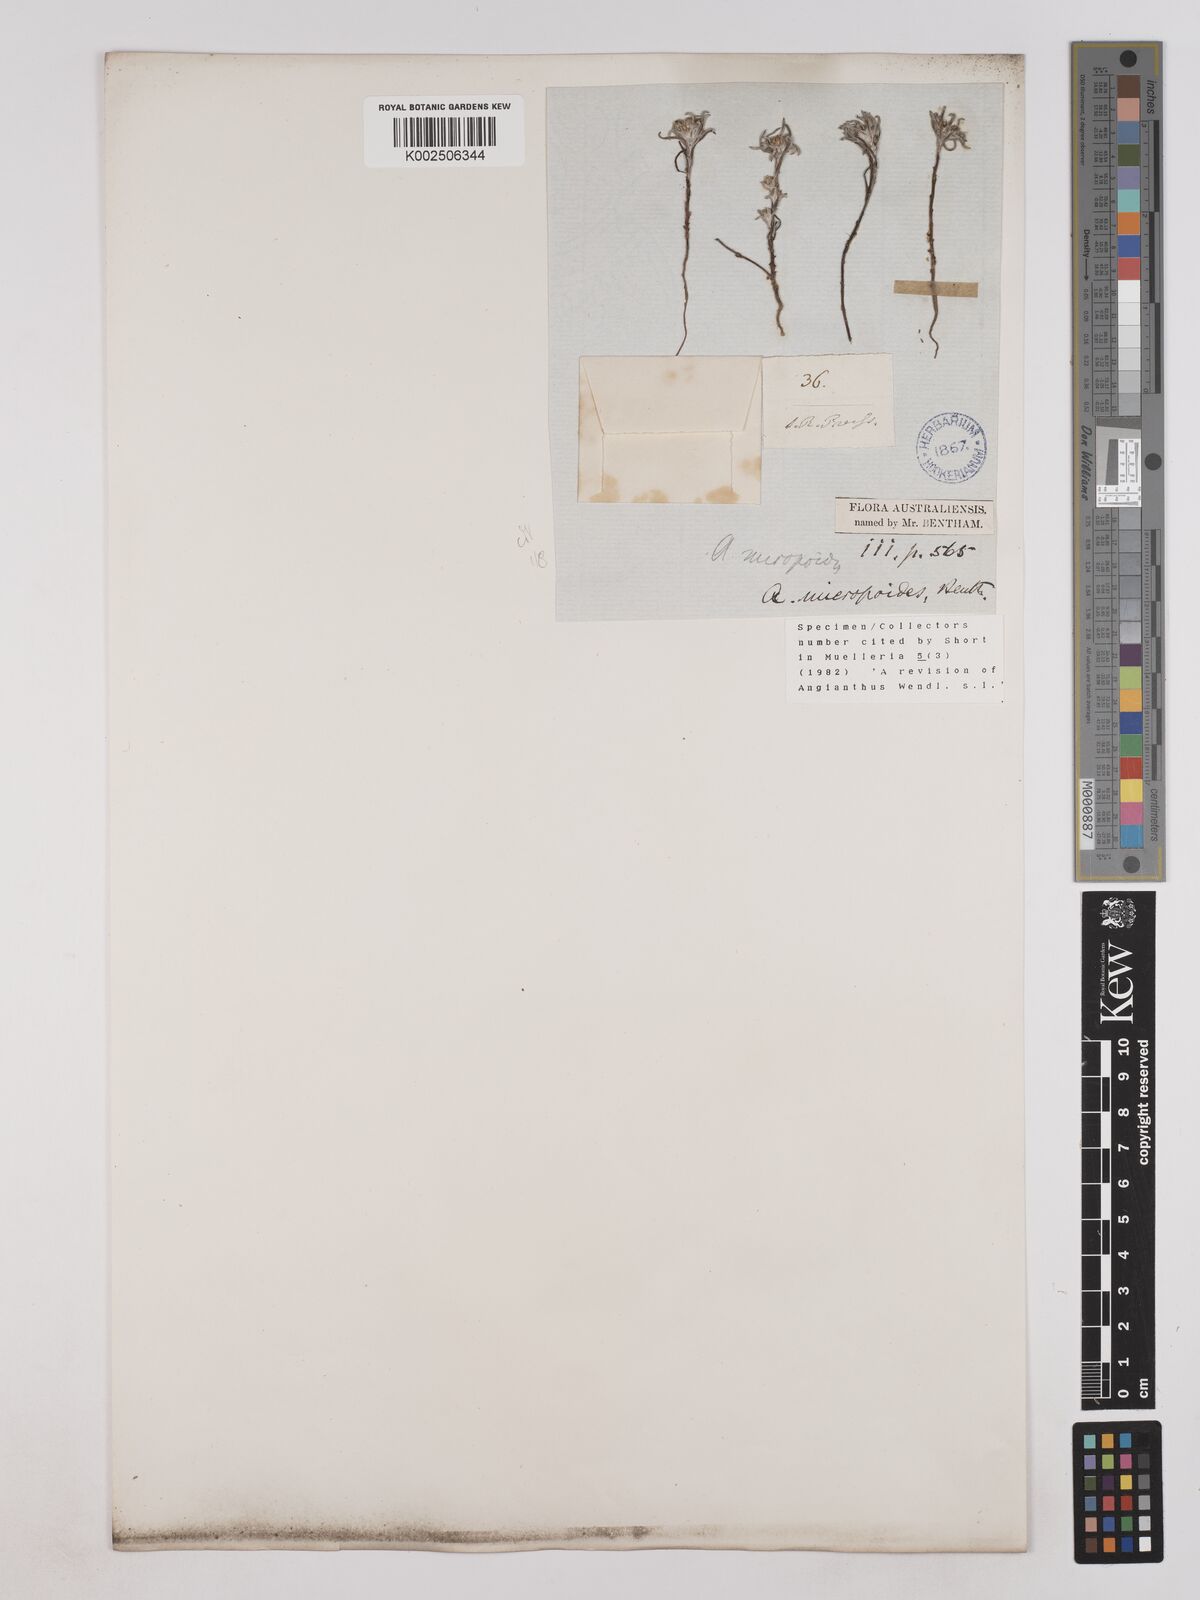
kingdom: Plantae
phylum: Tracheophyta
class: Magnoliopsida
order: Asterales
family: Asteraceae
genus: Angianthus
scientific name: Angianthus micropodioides
